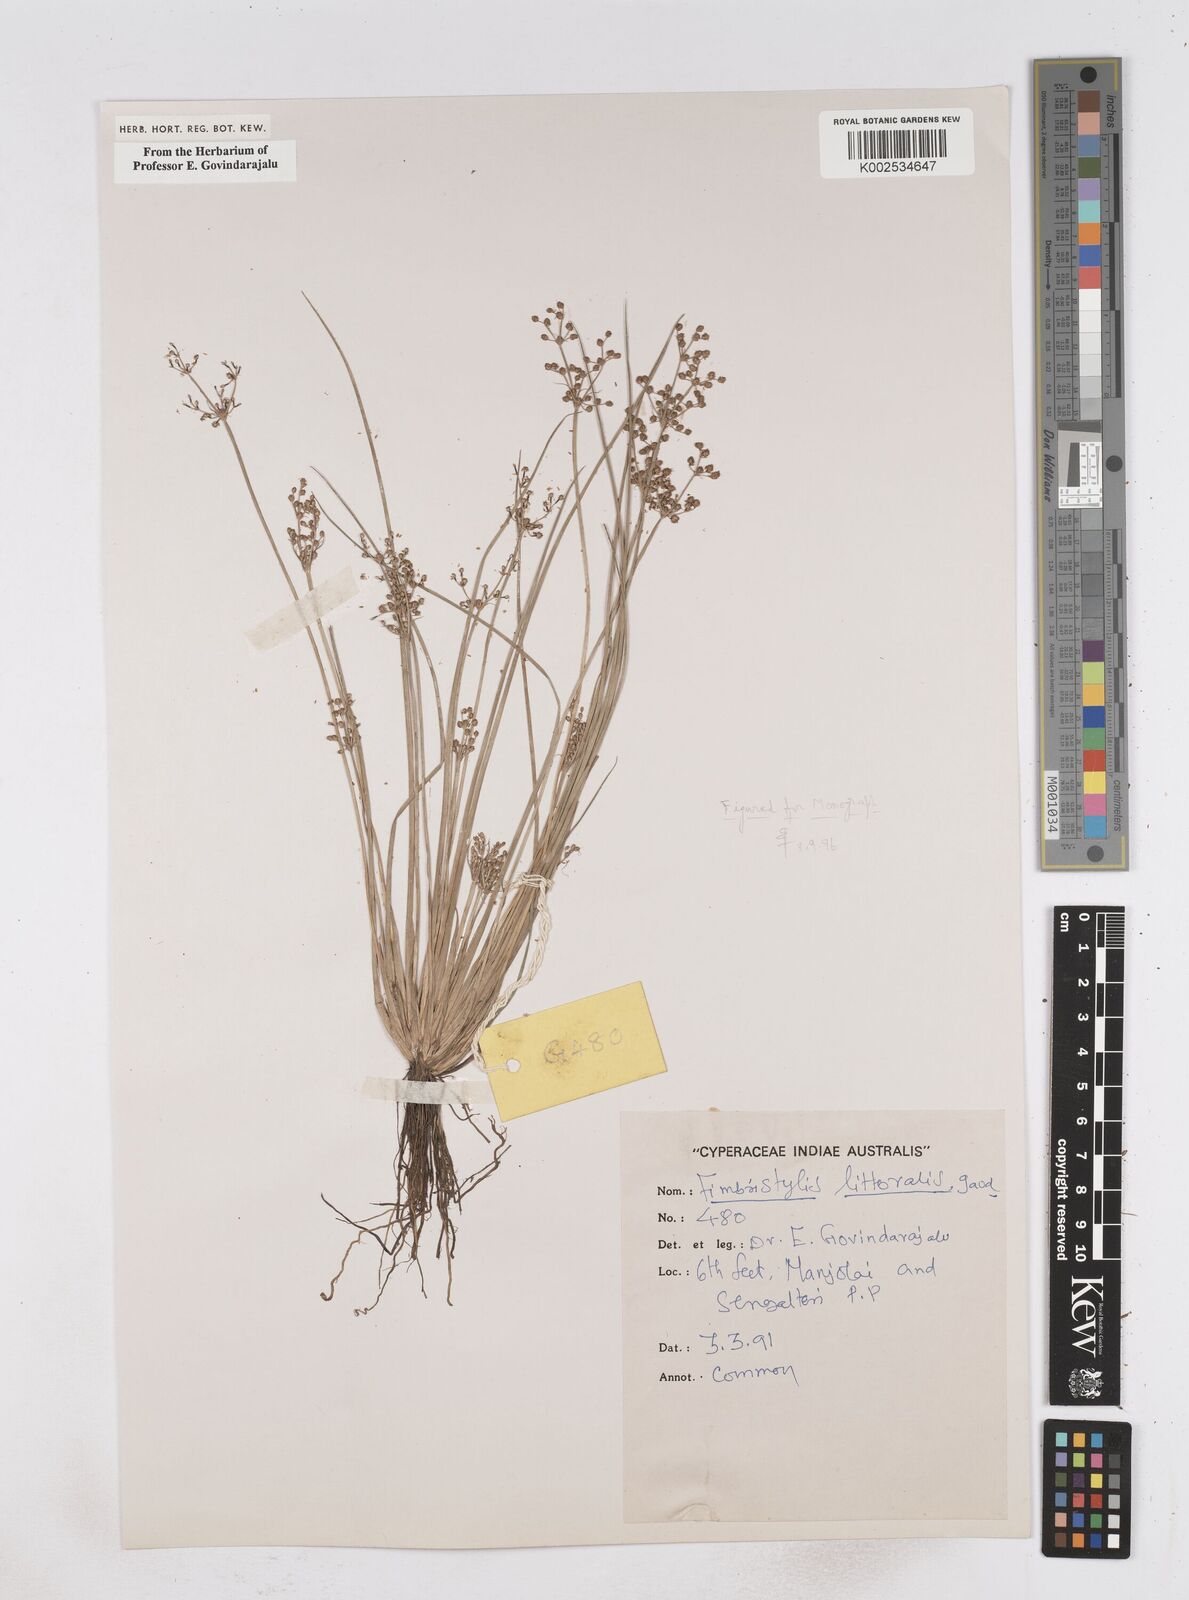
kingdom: Plantae
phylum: Tracheophyta
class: Liliopsida
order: Poales
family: Cyperaceae
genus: Fimbristylis
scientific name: Fimbristylis littoralis
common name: Fimbry
